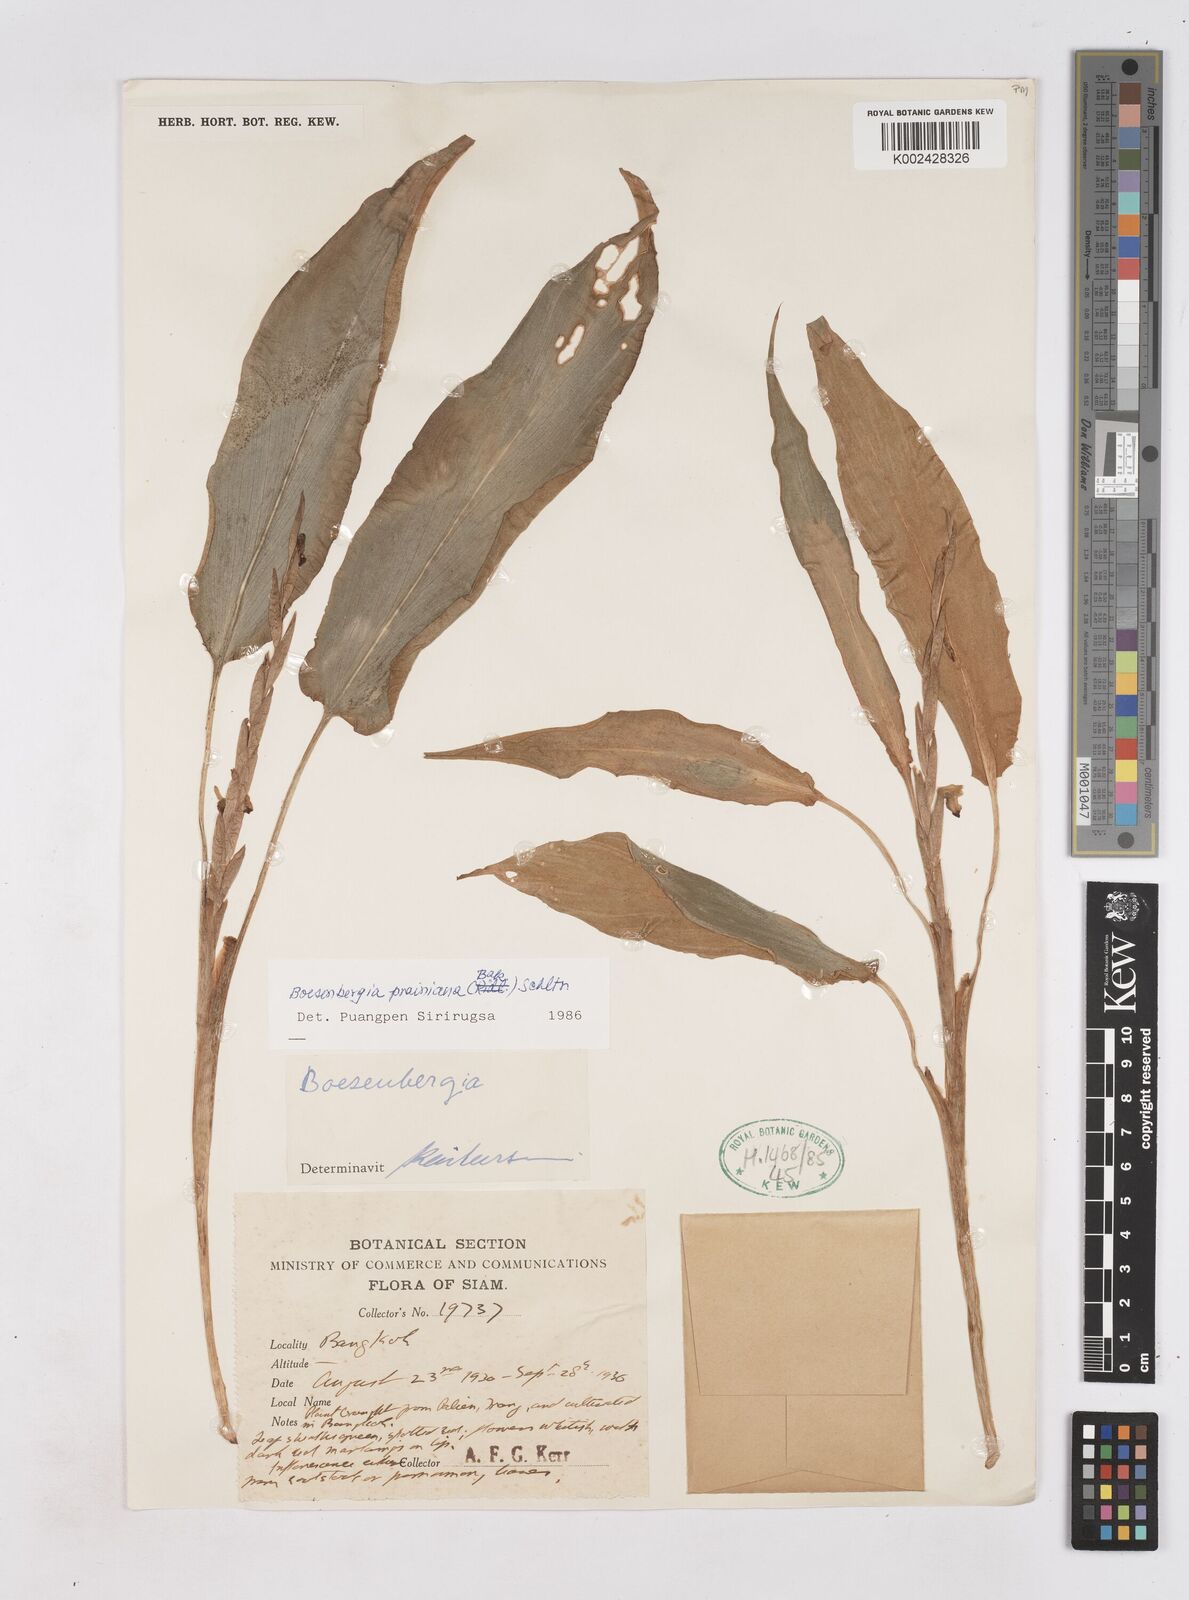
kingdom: Plantae
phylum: Tracheophyta
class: Liliopsida
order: Zingiberales
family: Zingiberaceae
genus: Boesenbergia
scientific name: Boesenbergia prainiana
